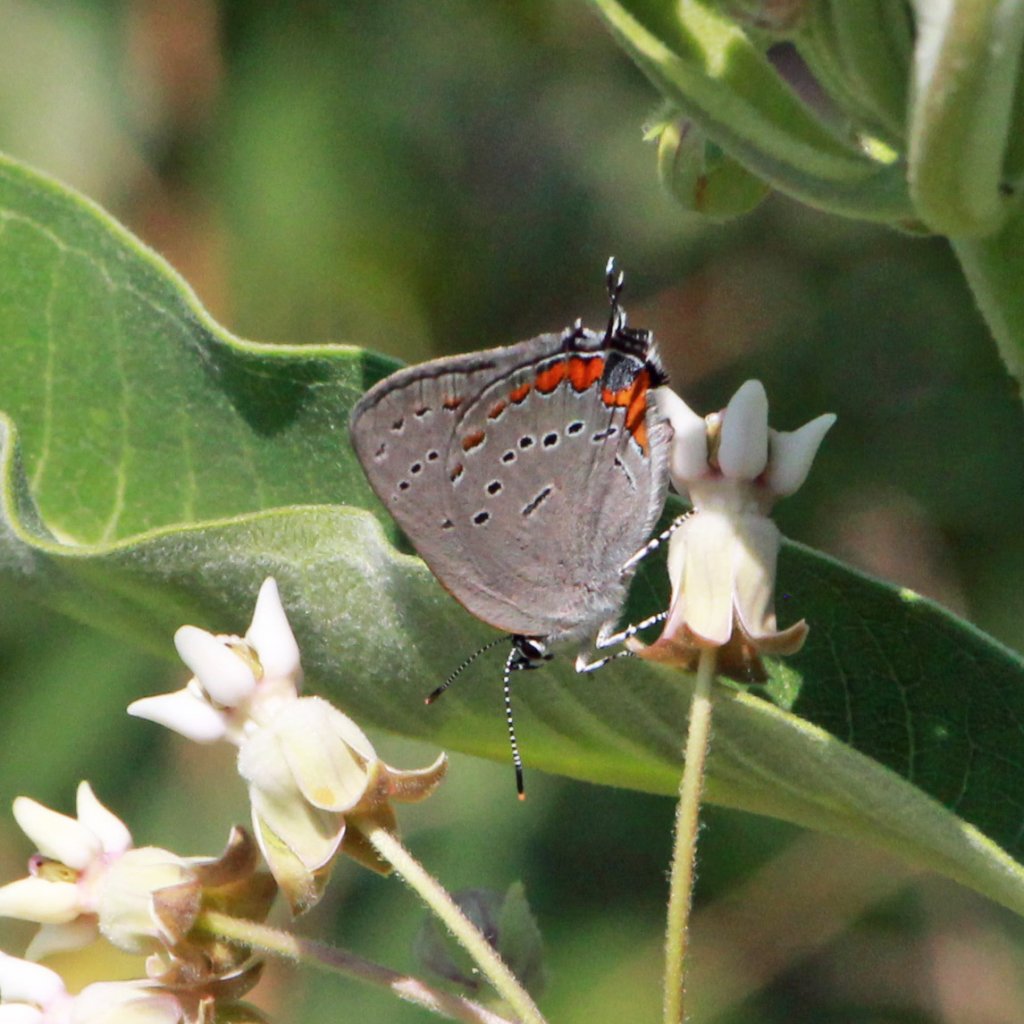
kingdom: Animalia
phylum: Arthropoda
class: Insecta
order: Lepidoptera
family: Lycaenidae
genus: Strymon
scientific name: Strymon acadica
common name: Acadian Hairstreak
